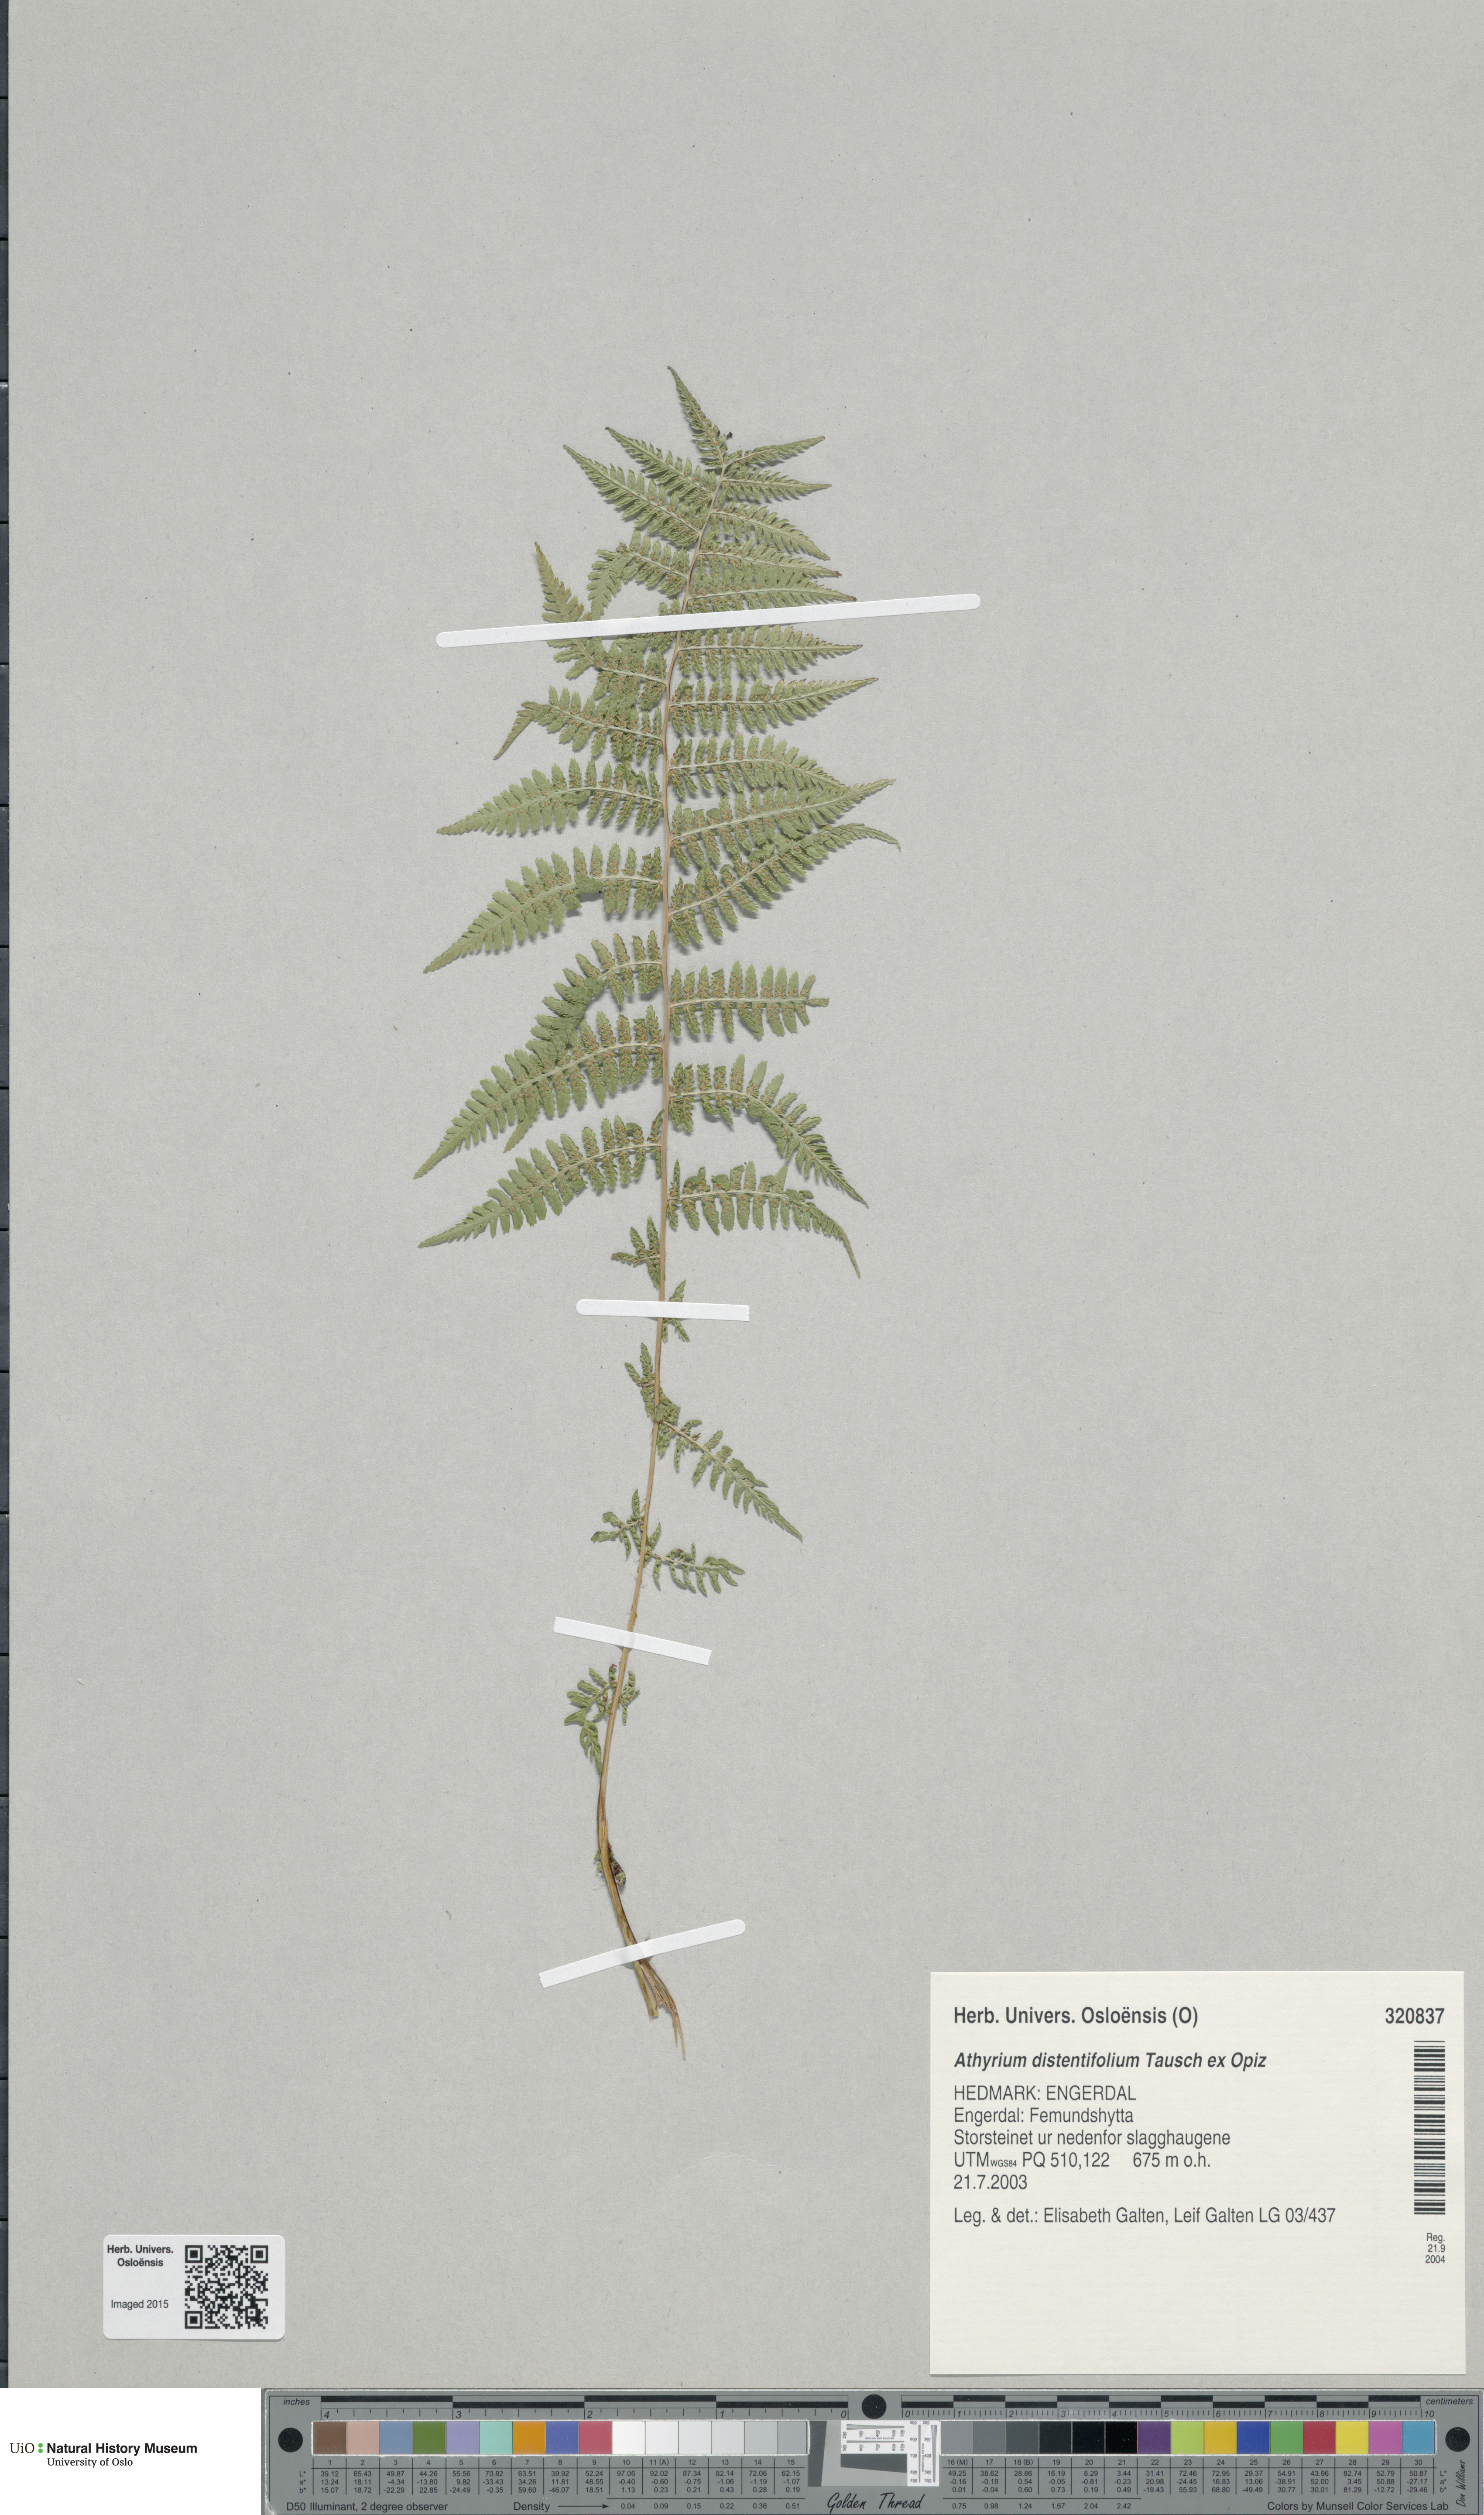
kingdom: Plantae
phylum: Tracheophyta
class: Polypodiopsida
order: Polypodiales
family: Athyriaceae
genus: Pseudathyrium
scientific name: Pseudathyrium alpestre
